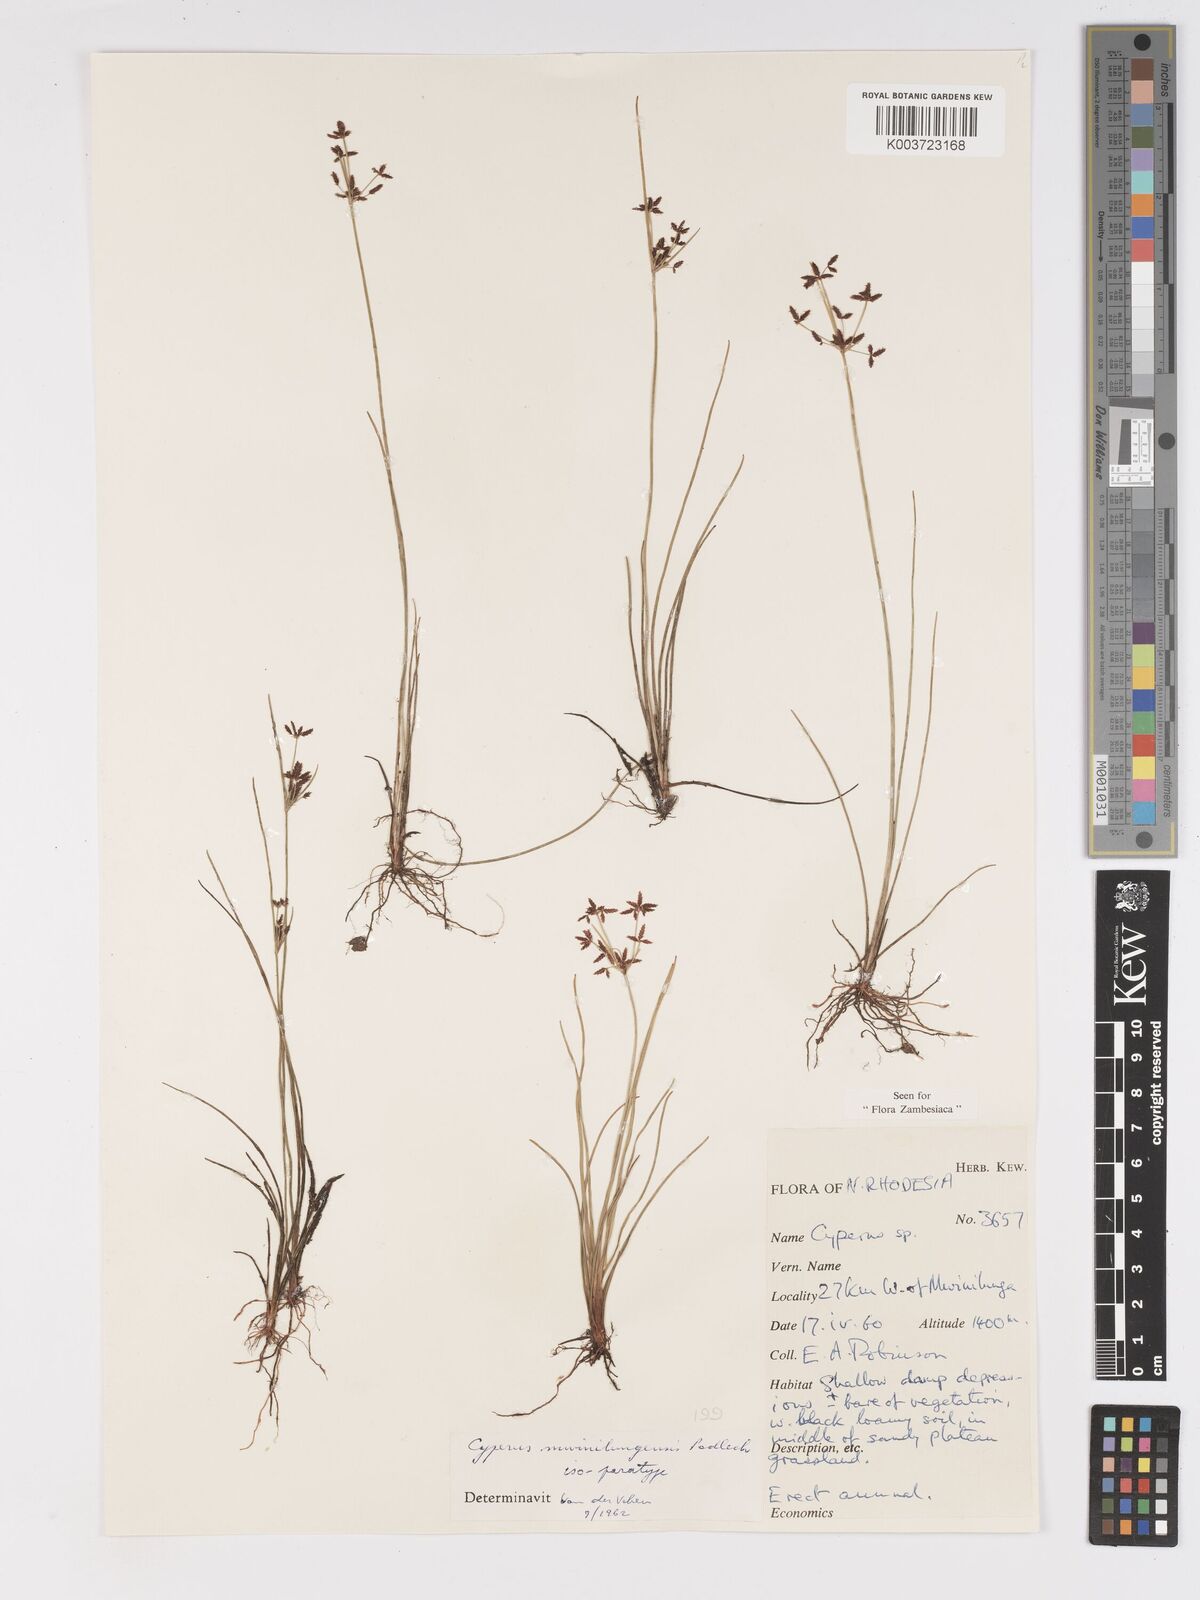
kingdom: Plantae
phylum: Tracheophyta
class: Liliopsida
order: Poales
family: Cyperaceae
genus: Cyperus
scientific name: Cyperus mwinilungensis
